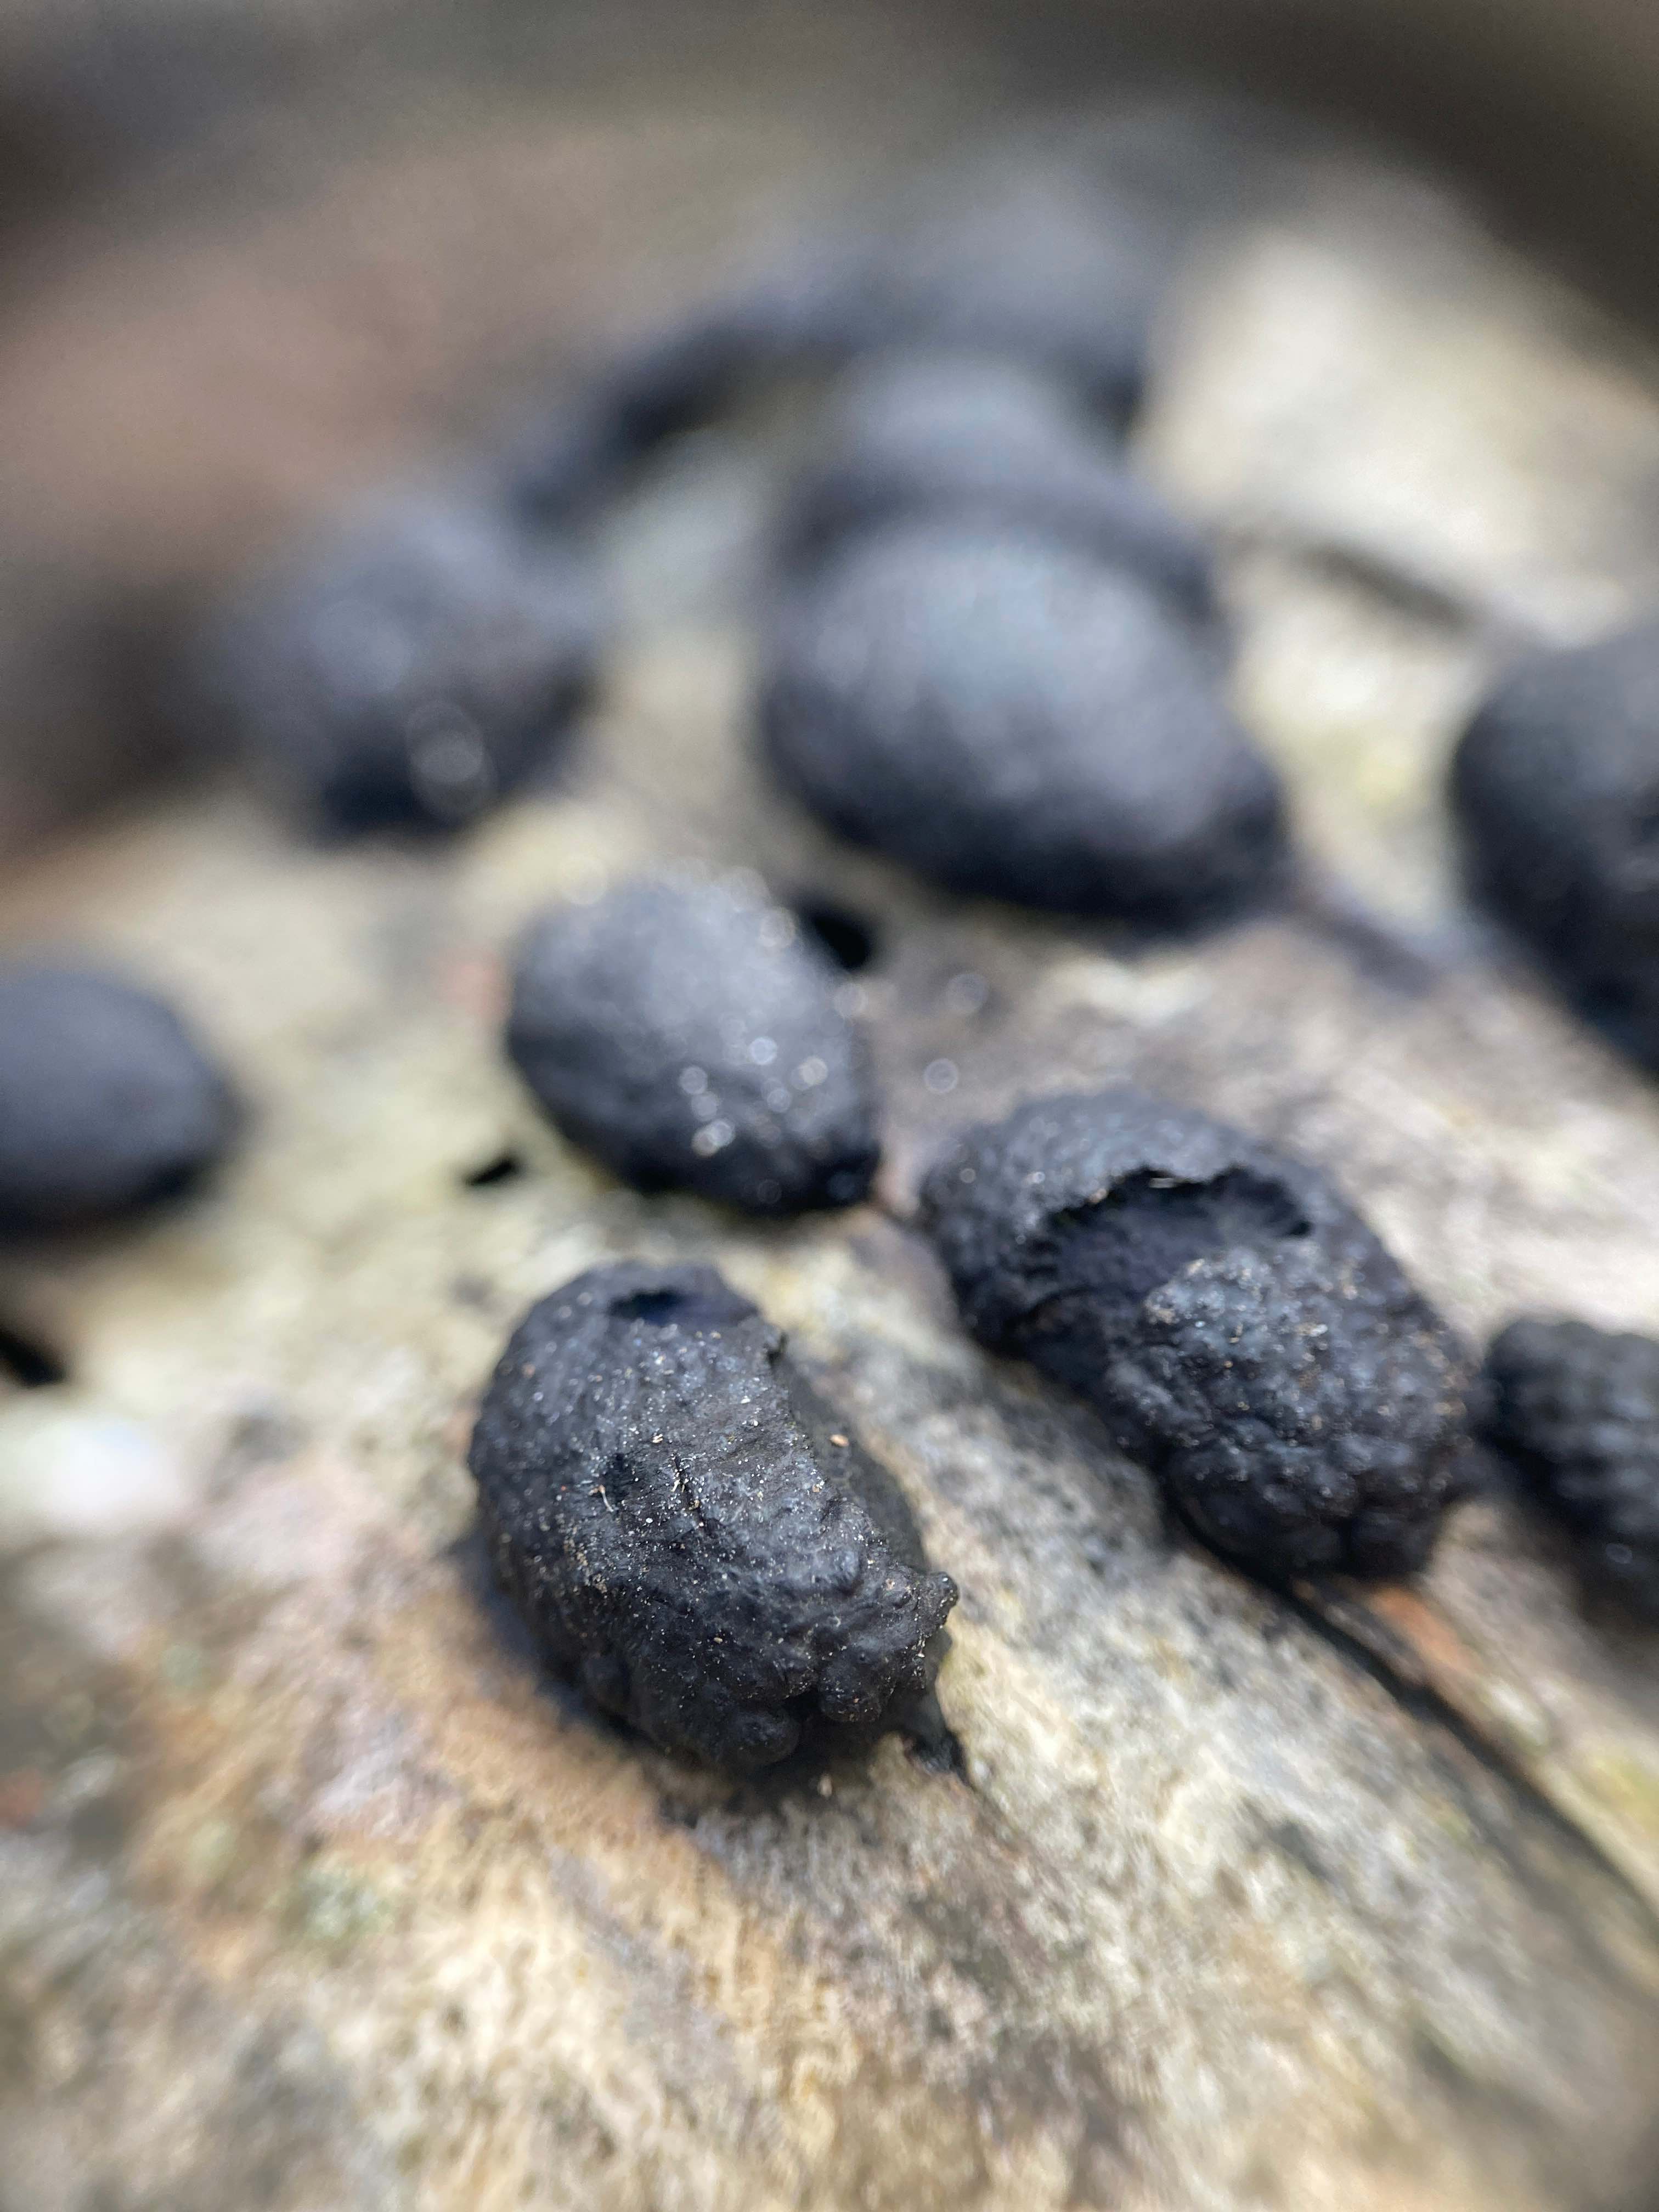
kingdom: Fungi
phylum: Ascomycota
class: Sordariomycetes
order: Xylariales
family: Hypoxylaceae
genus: Jackrogersella
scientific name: Jackrogersella multiformis
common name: foranderlig kulbær
